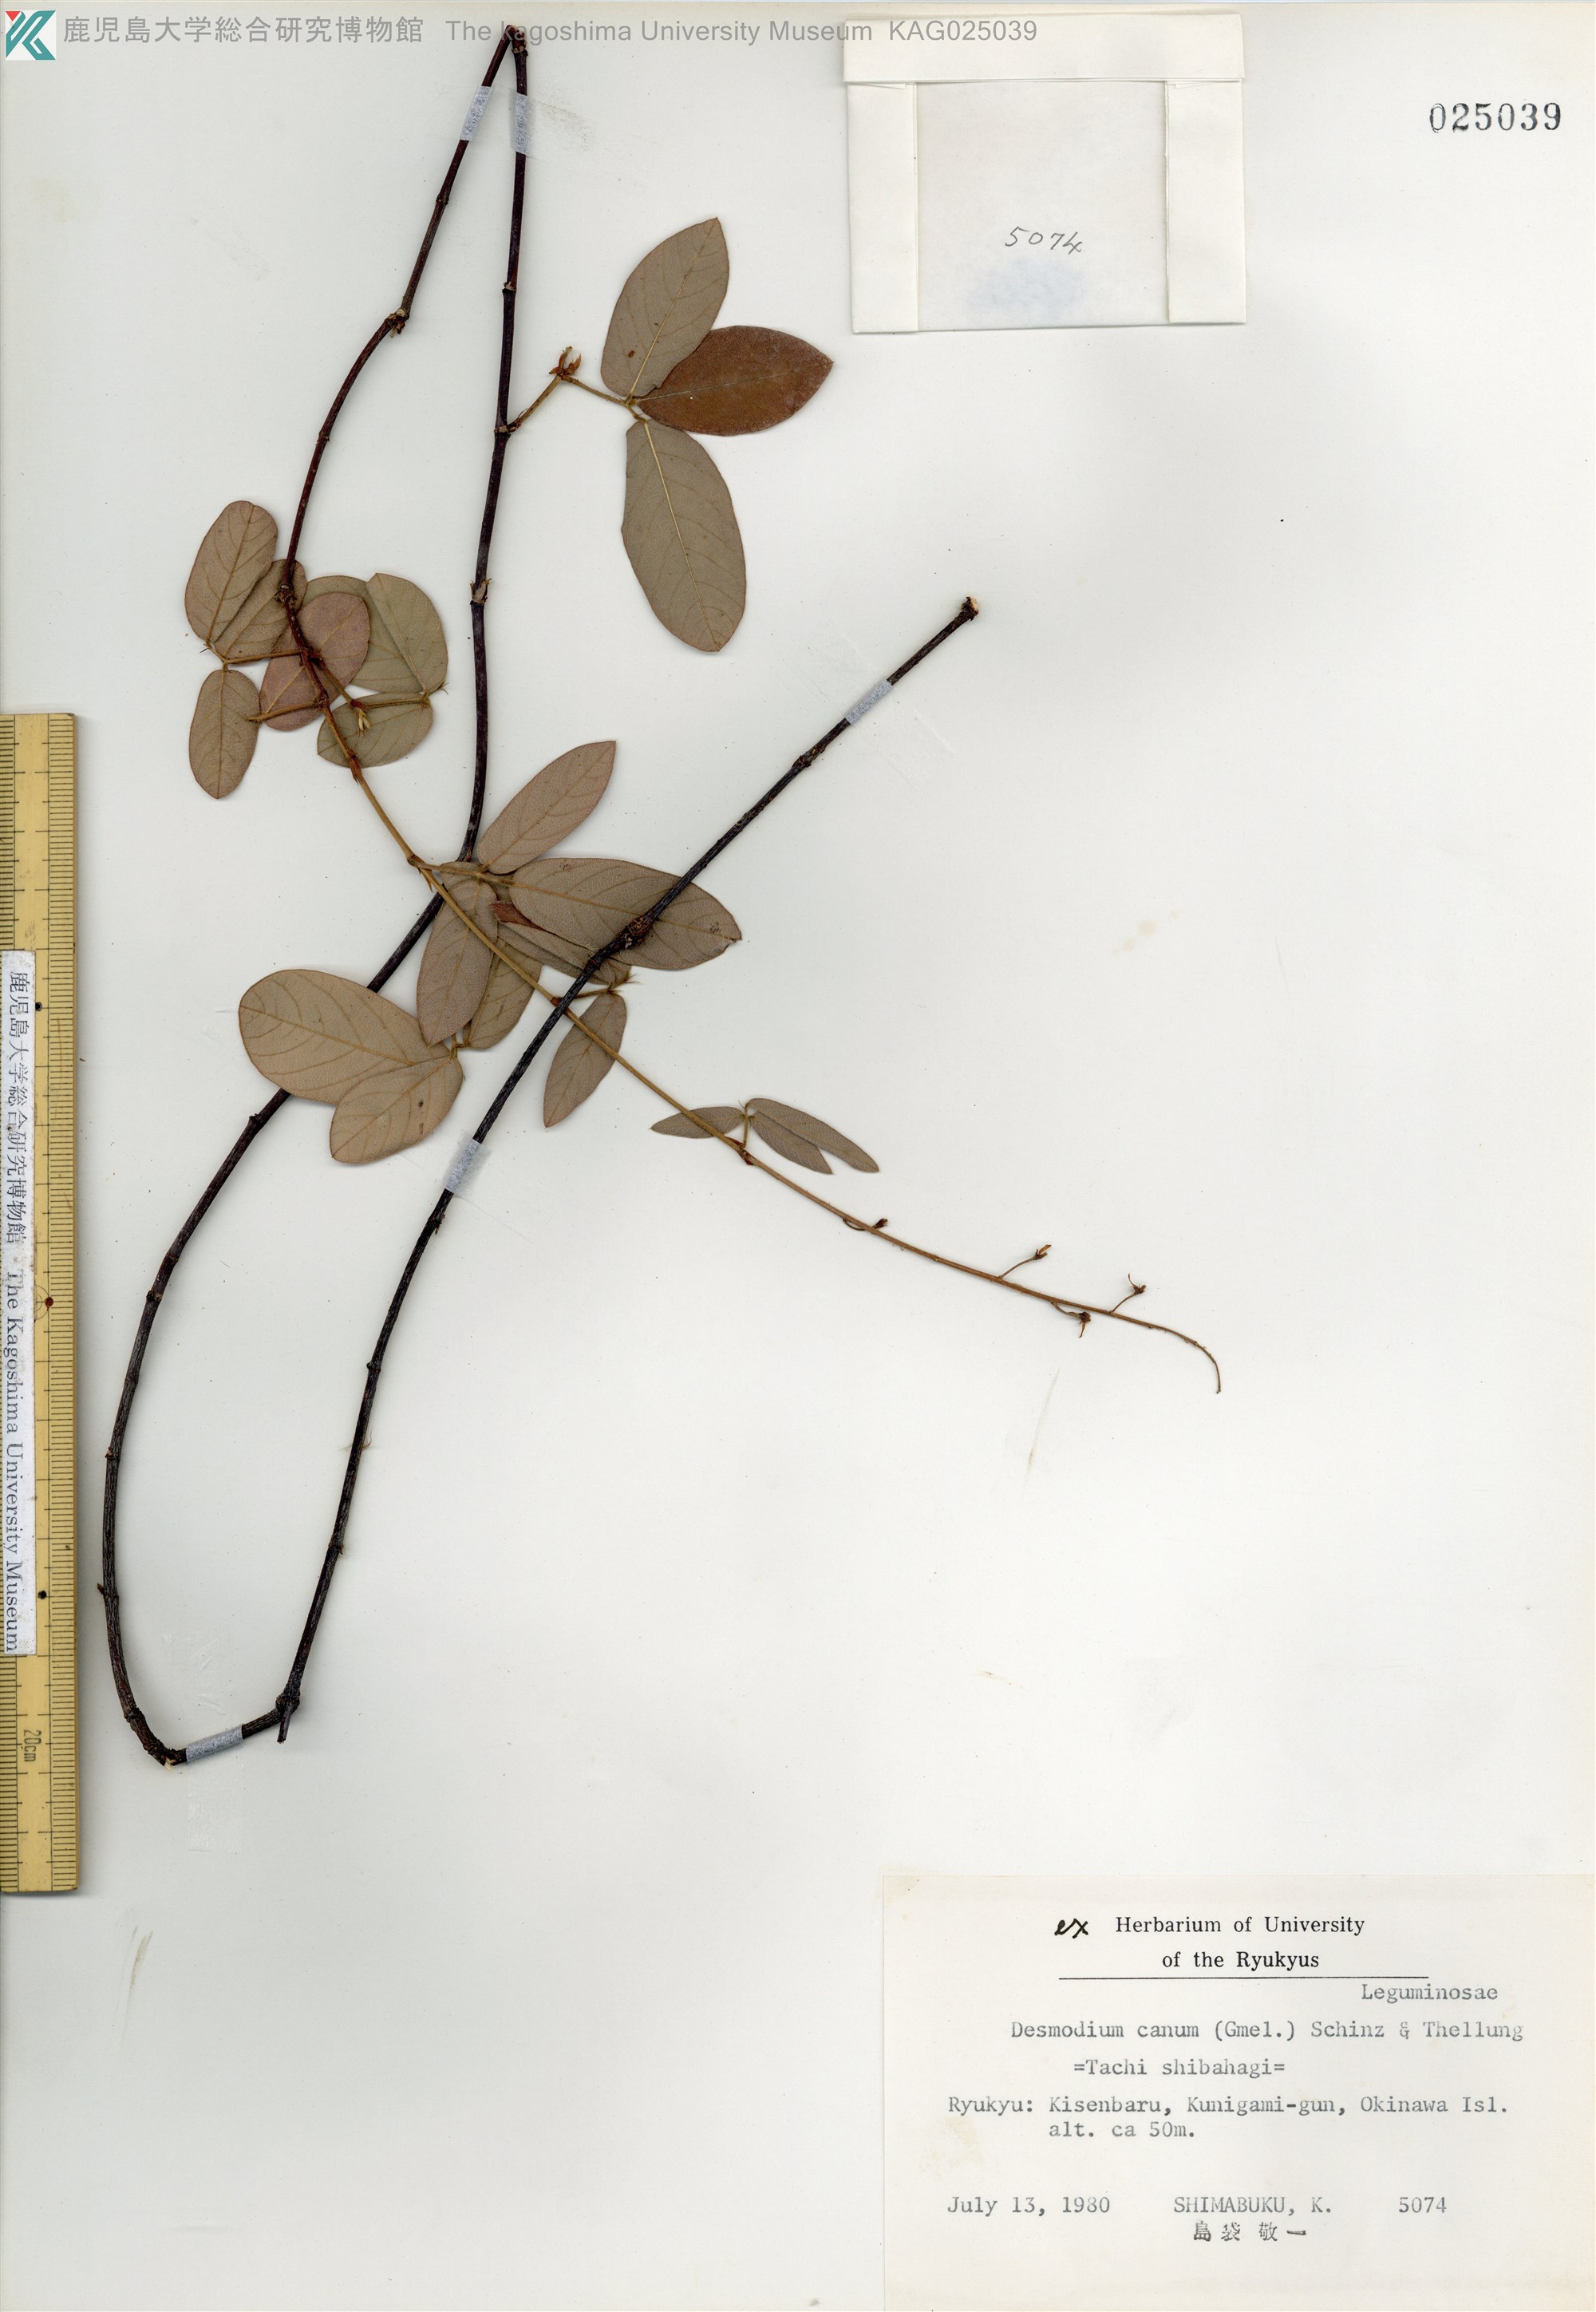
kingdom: Plantae
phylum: Tracheophyta
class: Magnoliopsida
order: Fabales
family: Fabaceae
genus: Desmodium
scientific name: Desmodium incanum
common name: Tickclover
